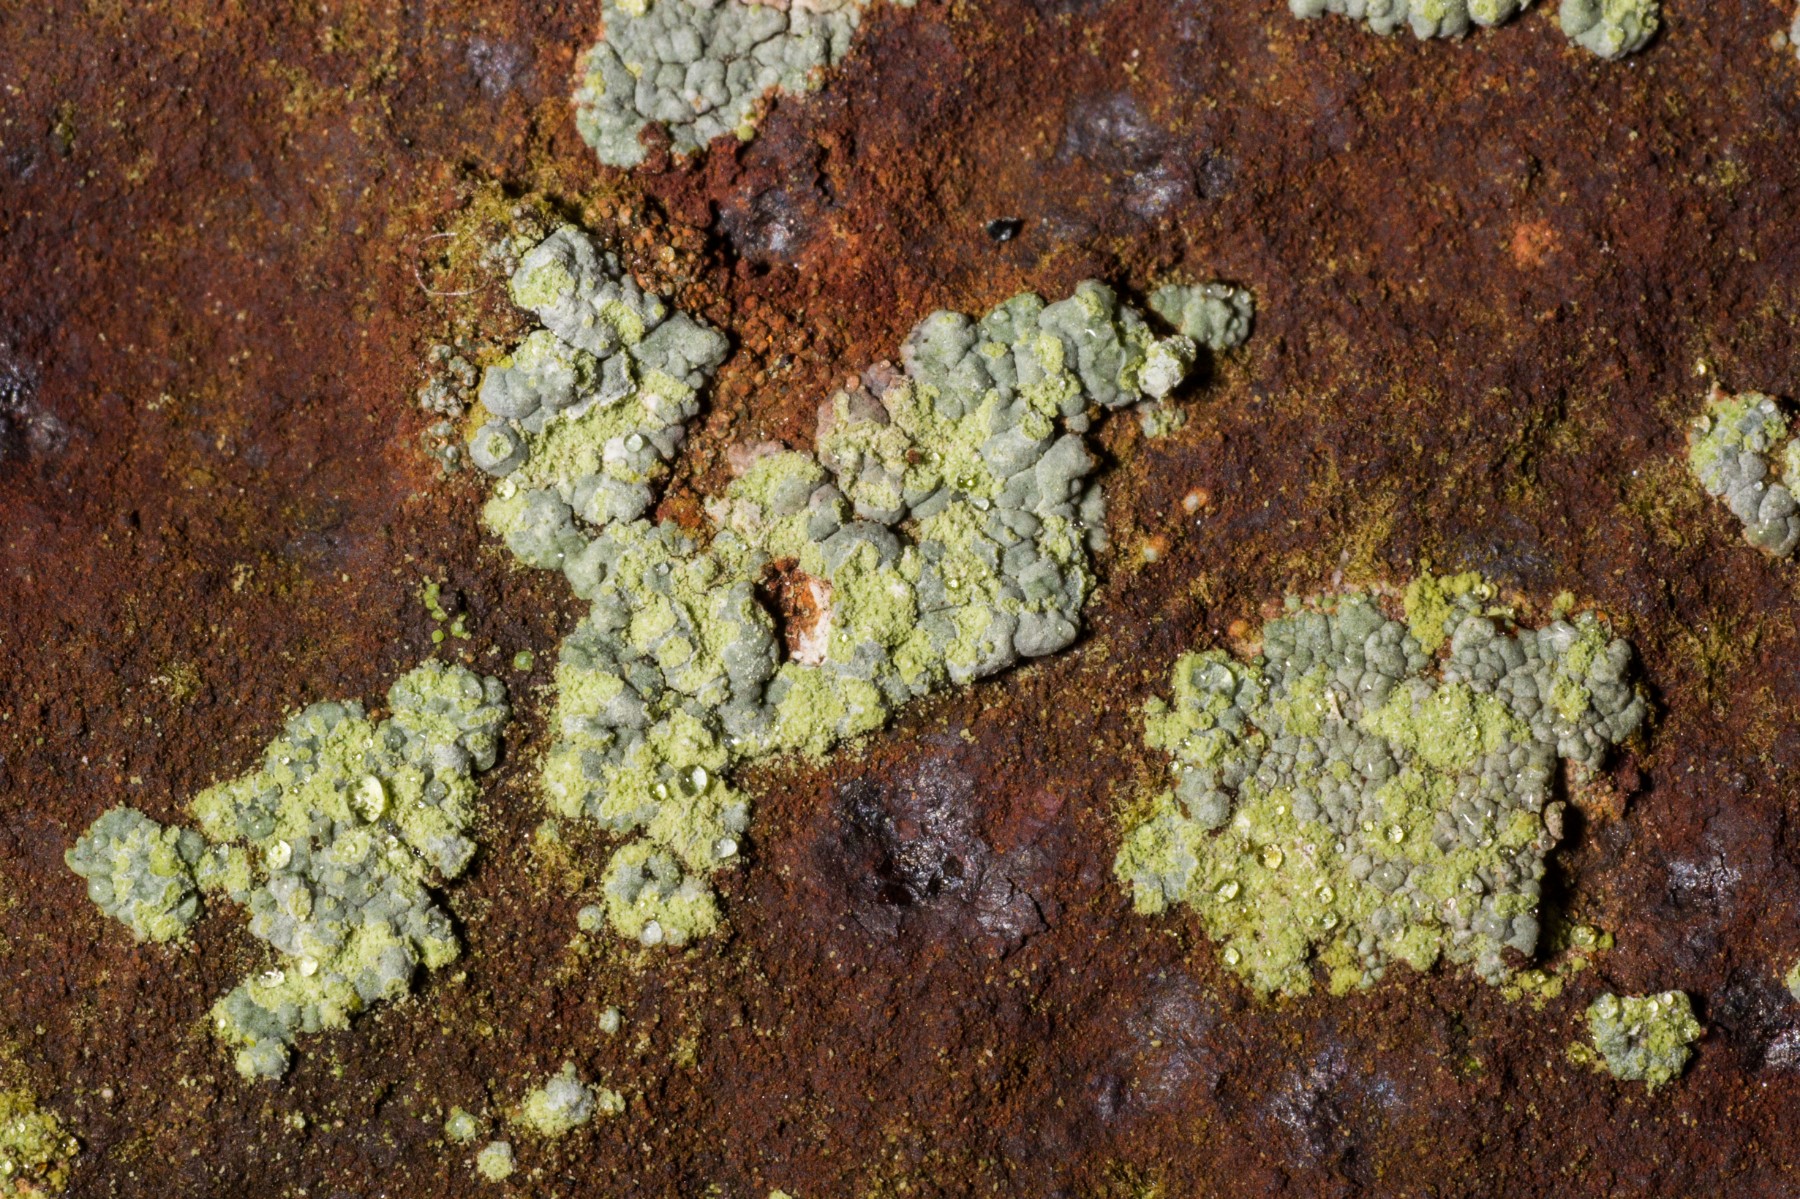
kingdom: Fungi
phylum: Ascomycota
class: Lecanoromycetes
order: Baeomycetales
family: Trapeliaceae
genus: Kleopowiella
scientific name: Kleopowiella placodioides
